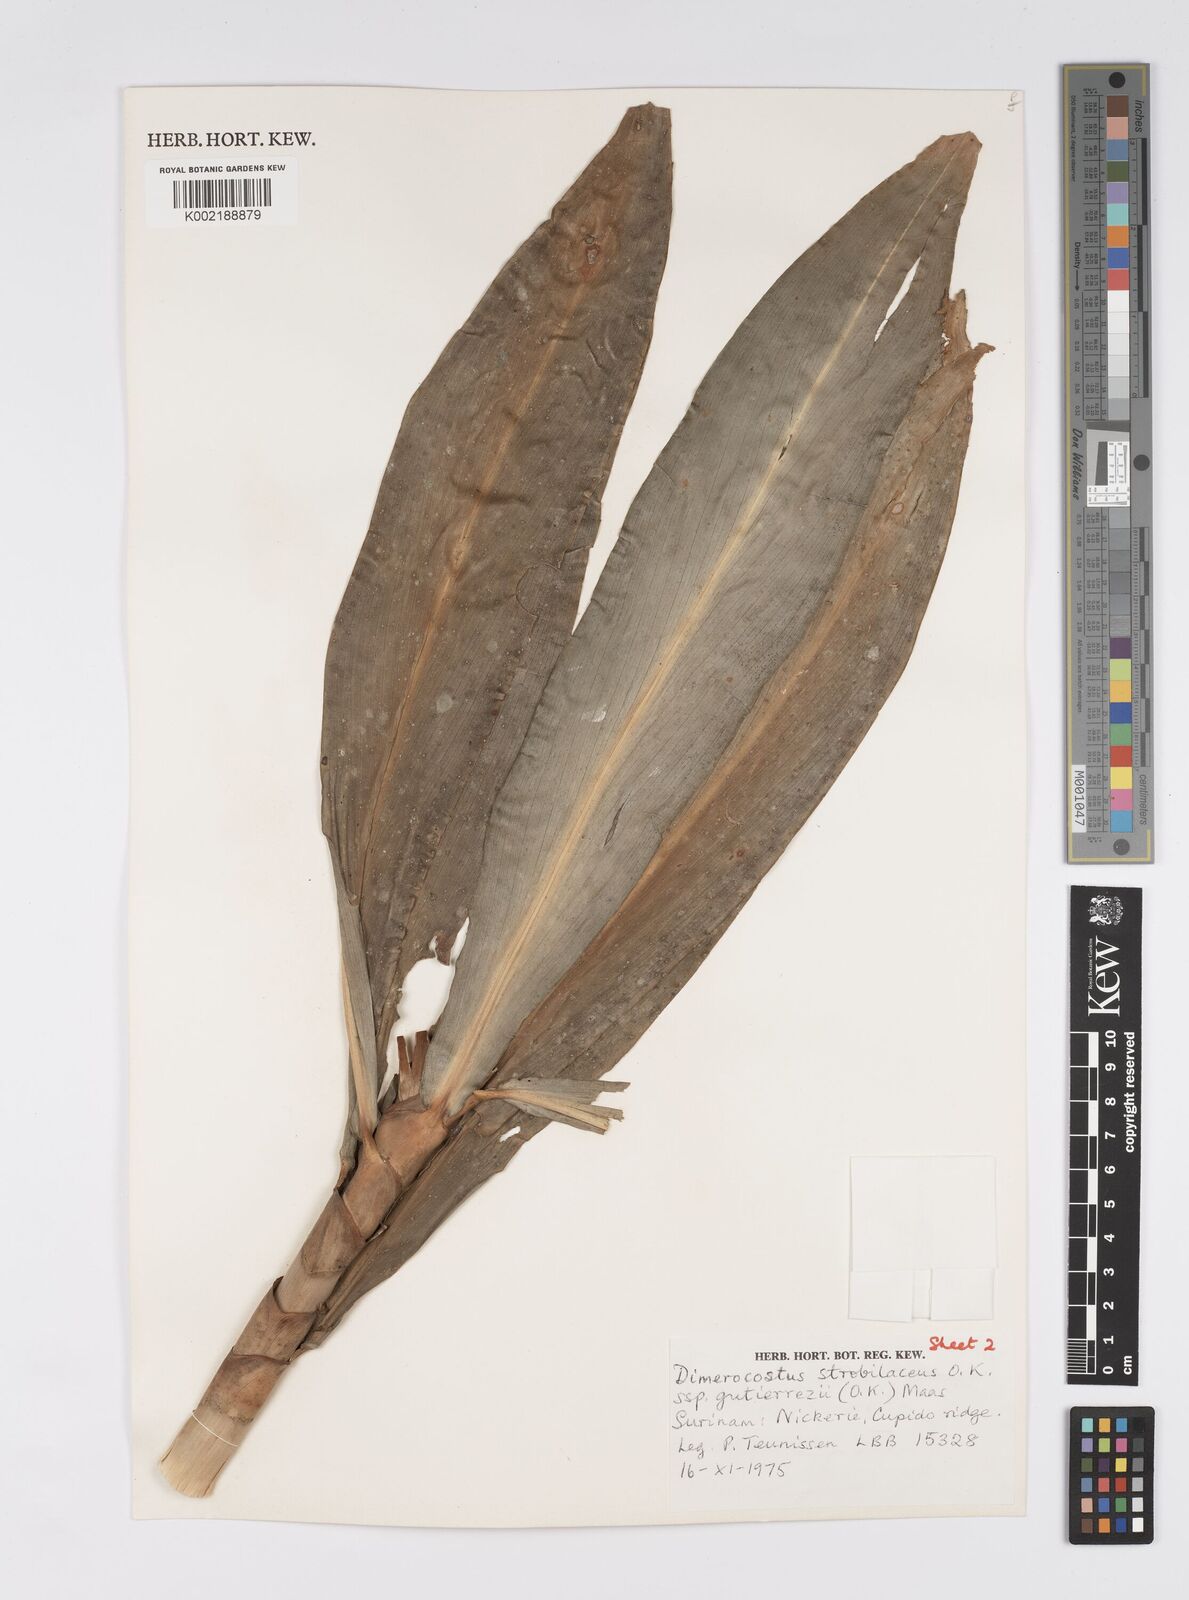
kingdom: Plantae
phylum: Tracheophyta
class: Liliopsida
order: Zingiberales
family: Costaceae
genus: Dimerocostus
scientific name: Dimerocostus strobilaceus
